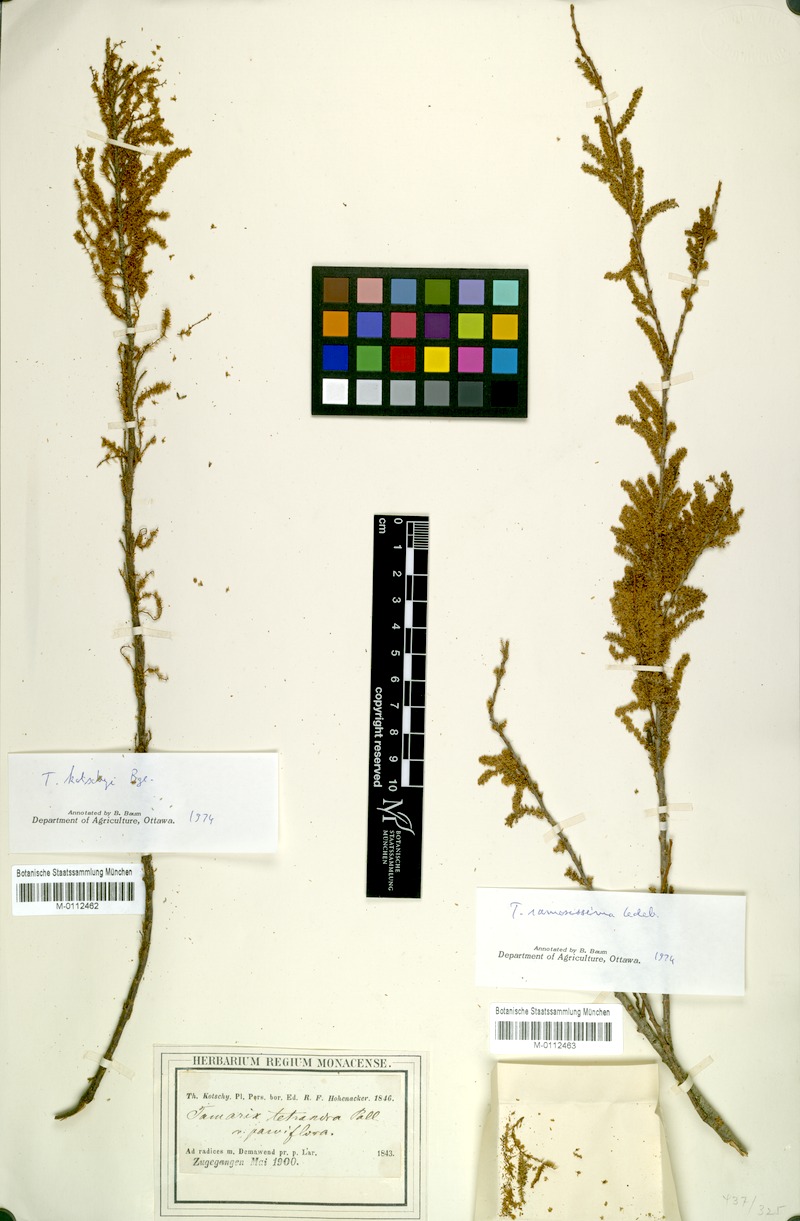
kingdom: Plantae
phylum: Tracheophyta
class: Magnoliopsida
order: Caryophyllales
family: Tamaricaceae
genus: Tamarix
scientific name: Tamarix kotschyi
